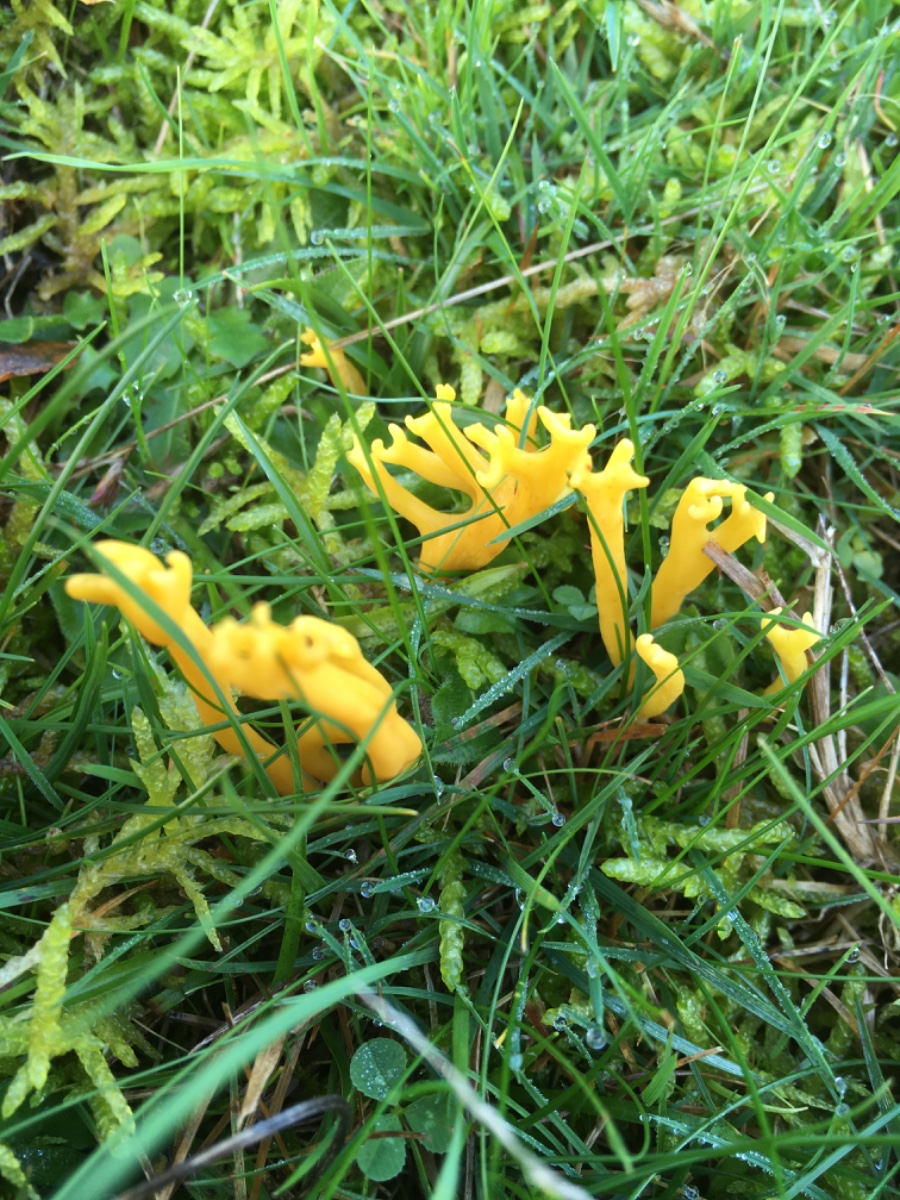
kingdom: Fungi
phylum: Basidiomycota
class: Agaricomycetes
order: Agaricales
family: Clavariaceae
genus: Clavulinopsis
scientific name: Clavulinopsis corniculata
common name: eng-køllesvamp
